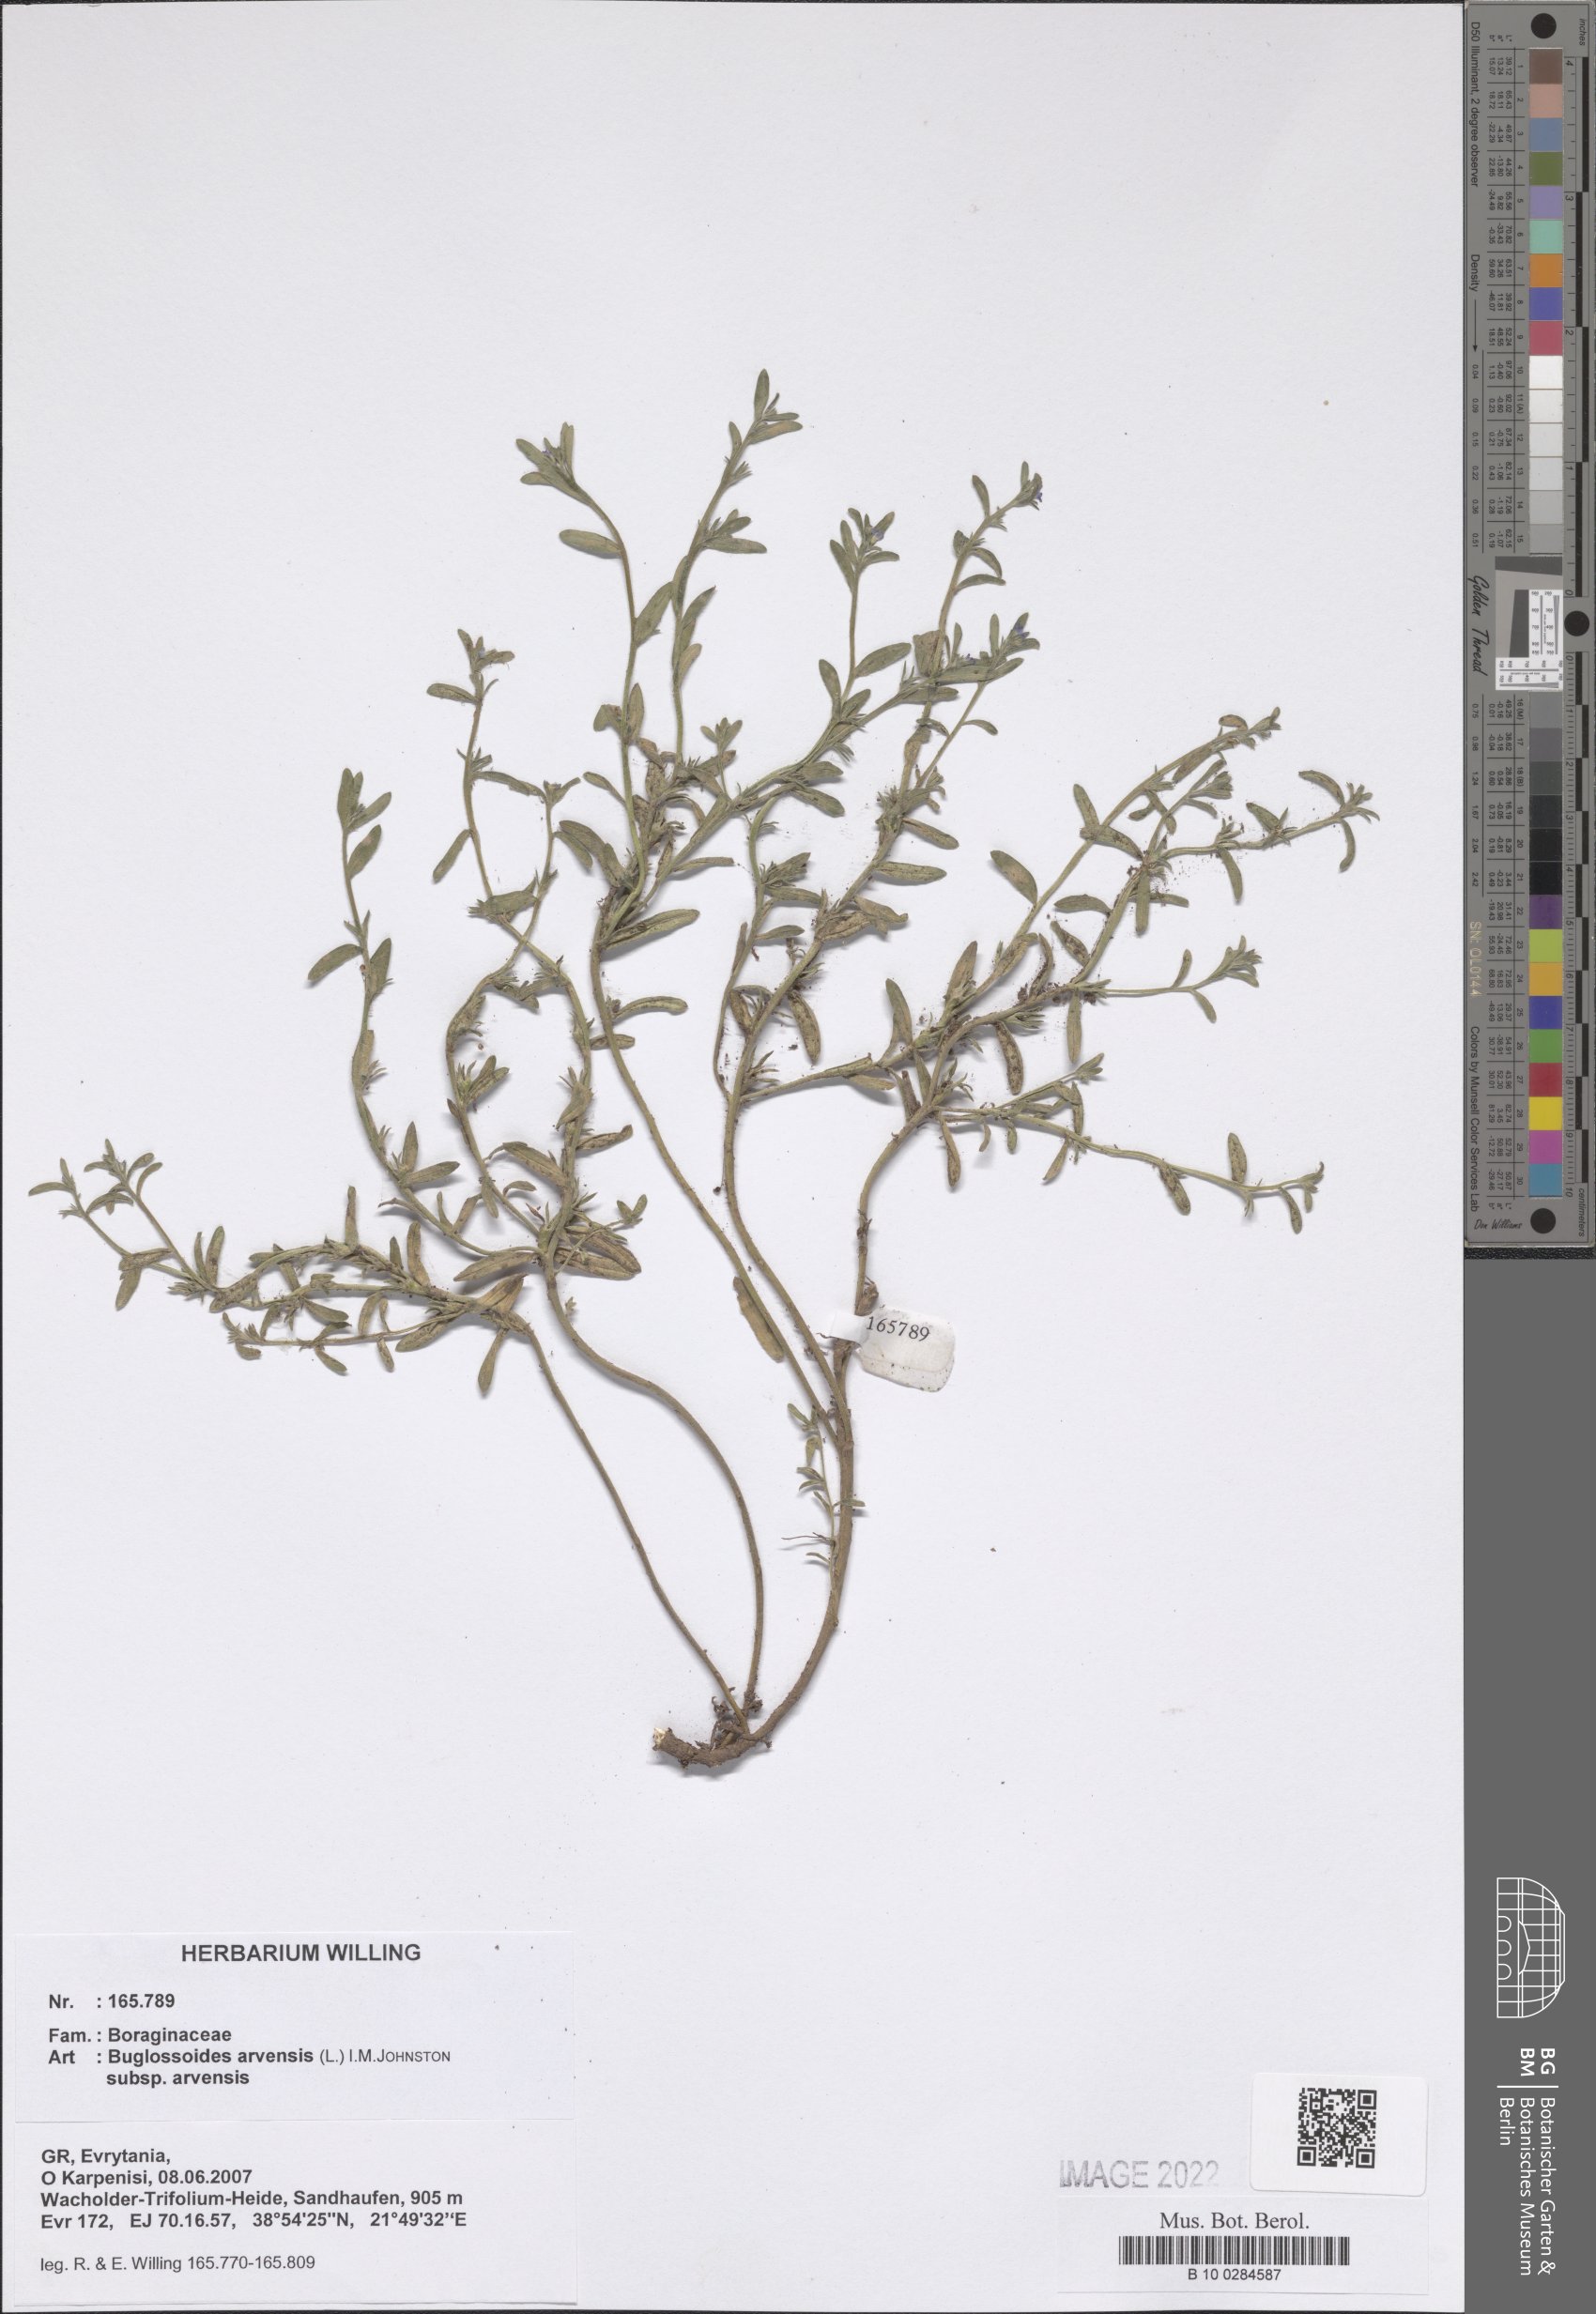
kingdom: Plantae
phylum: Tracheophyta
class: Magnoliopsida
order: Boraginales
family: Boraginaceae
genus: Buglossoides
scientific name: Buglossoides arvensis
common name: Corn gromwell
